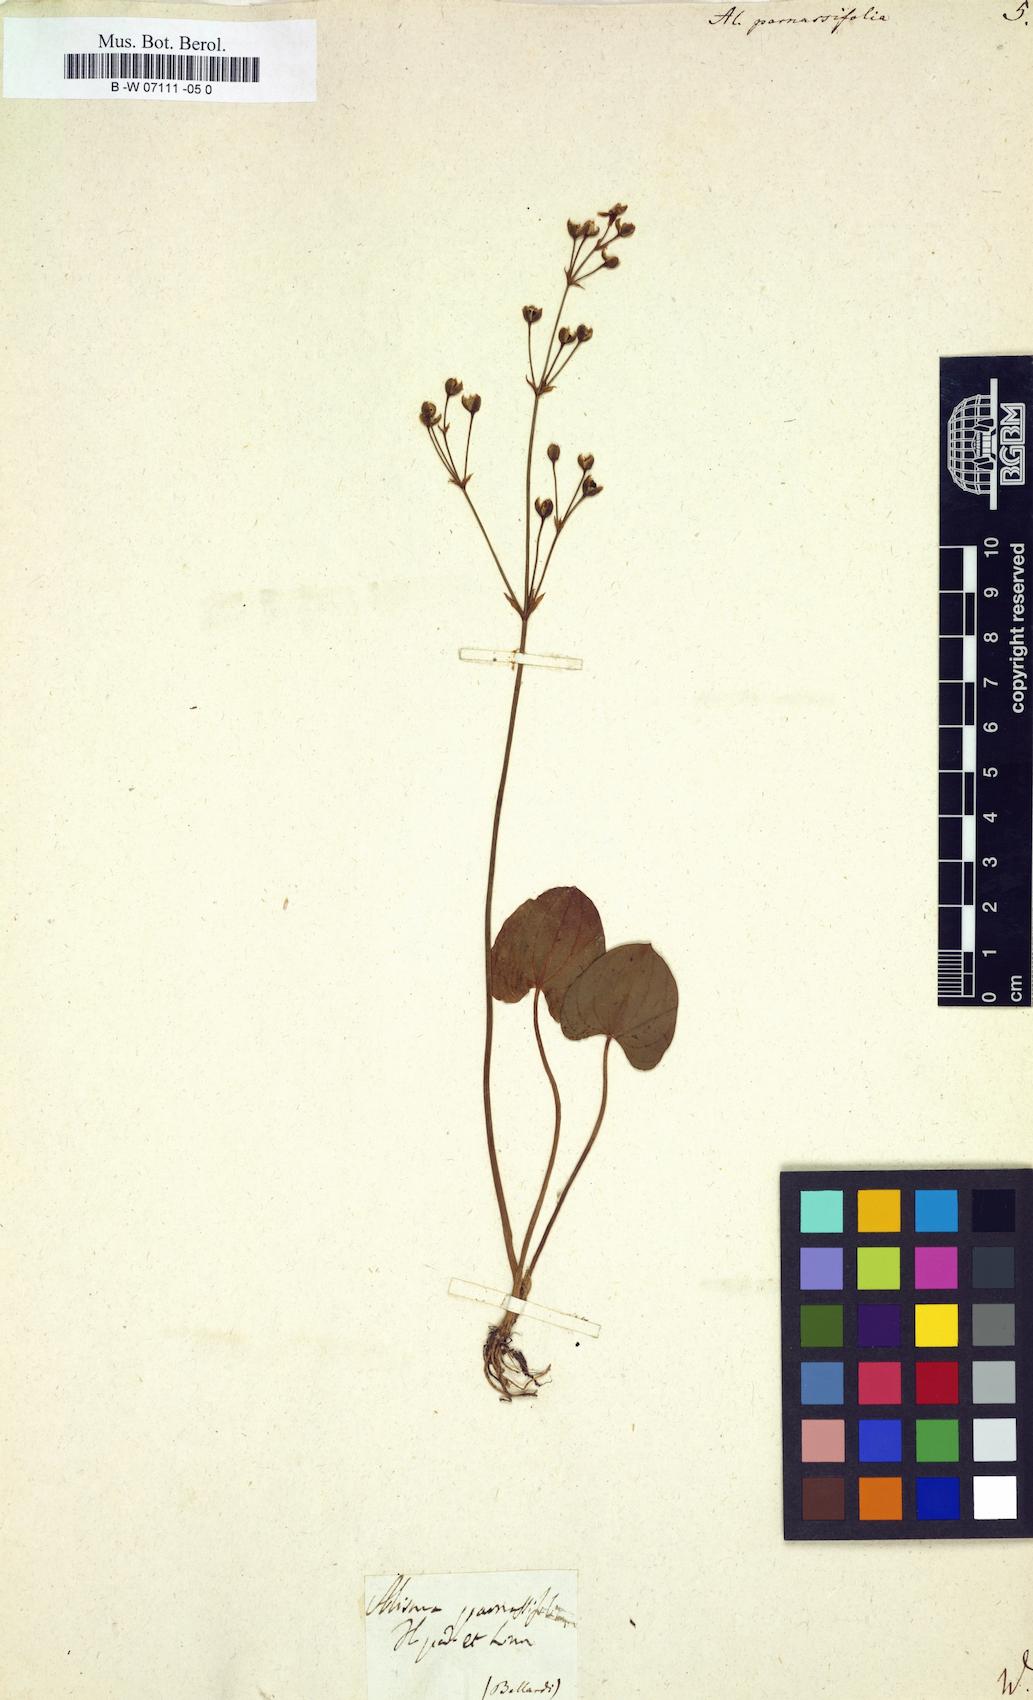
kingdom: Plantae
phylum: Tracheophyta
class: Liliopsida
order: Alismatales
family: Alismataceae
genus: Caldesia
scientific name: Caldesia parnassifolia
